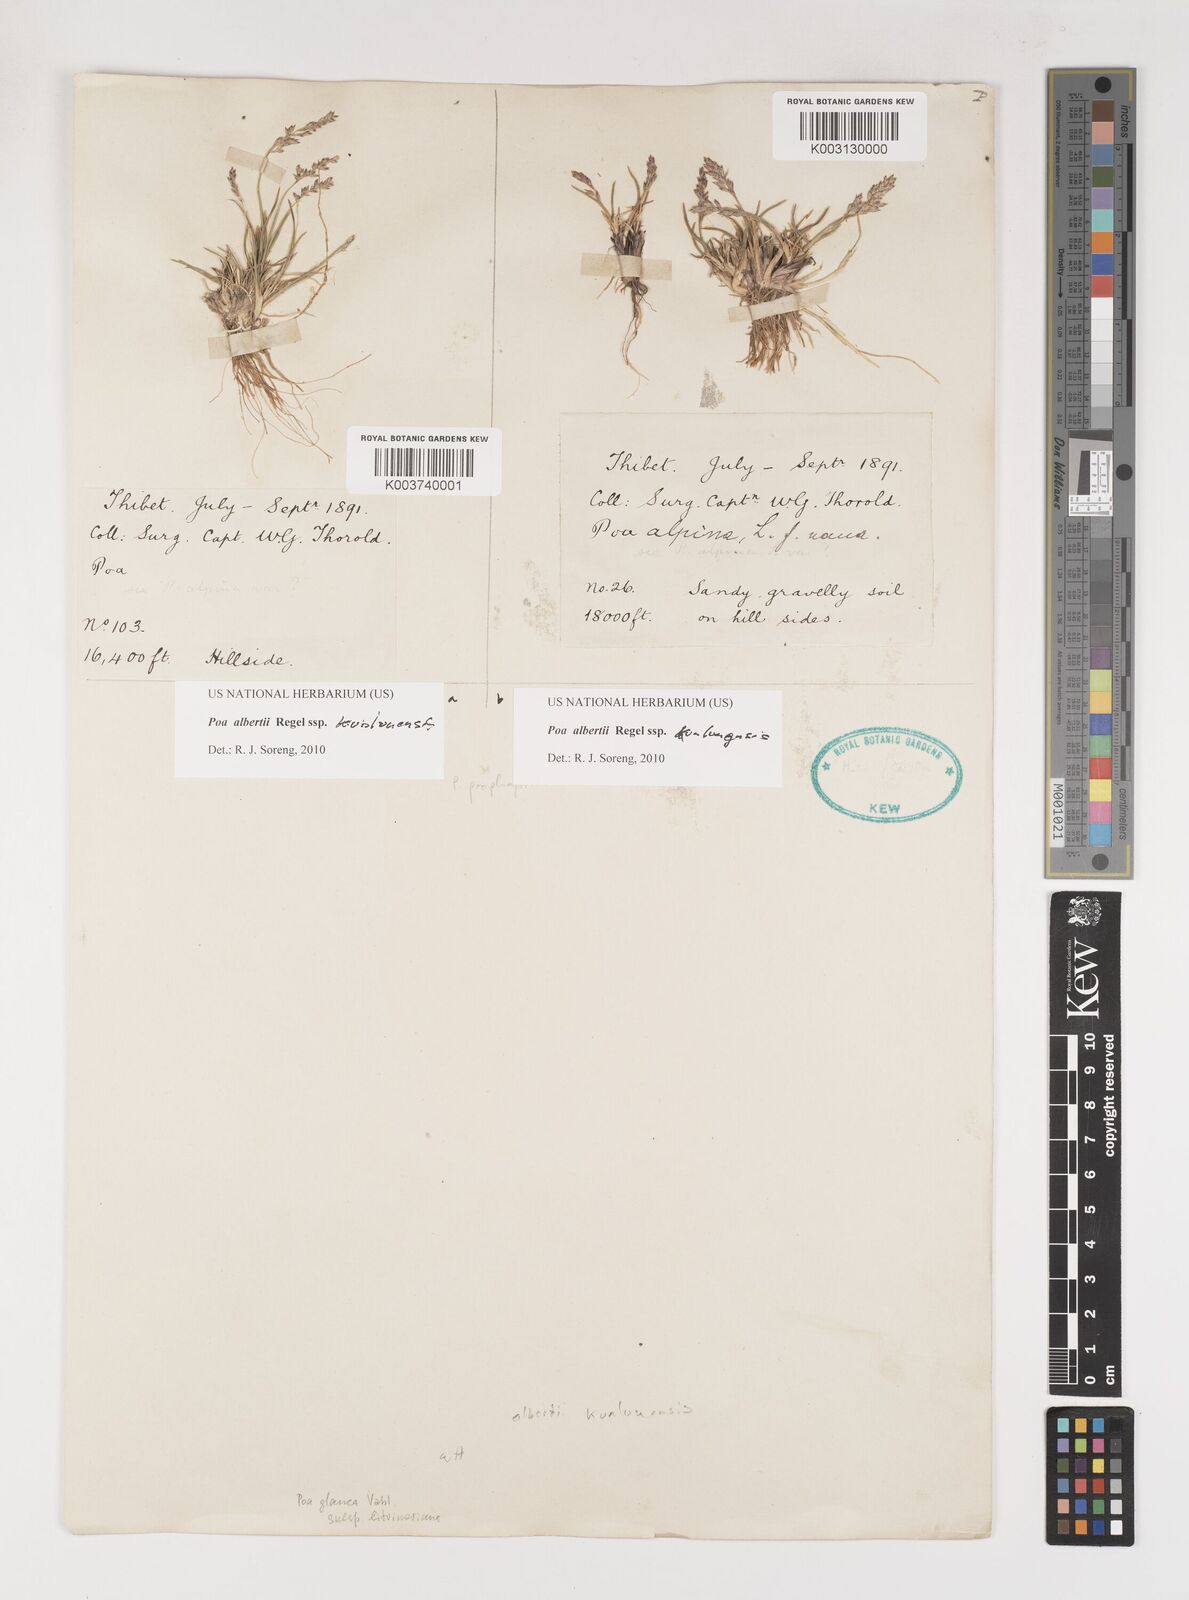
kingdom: Plantae
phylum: Tracheophyta
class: Liliopsida
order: Poales
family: Poaceae
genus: Poa
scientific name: Poa alberti
